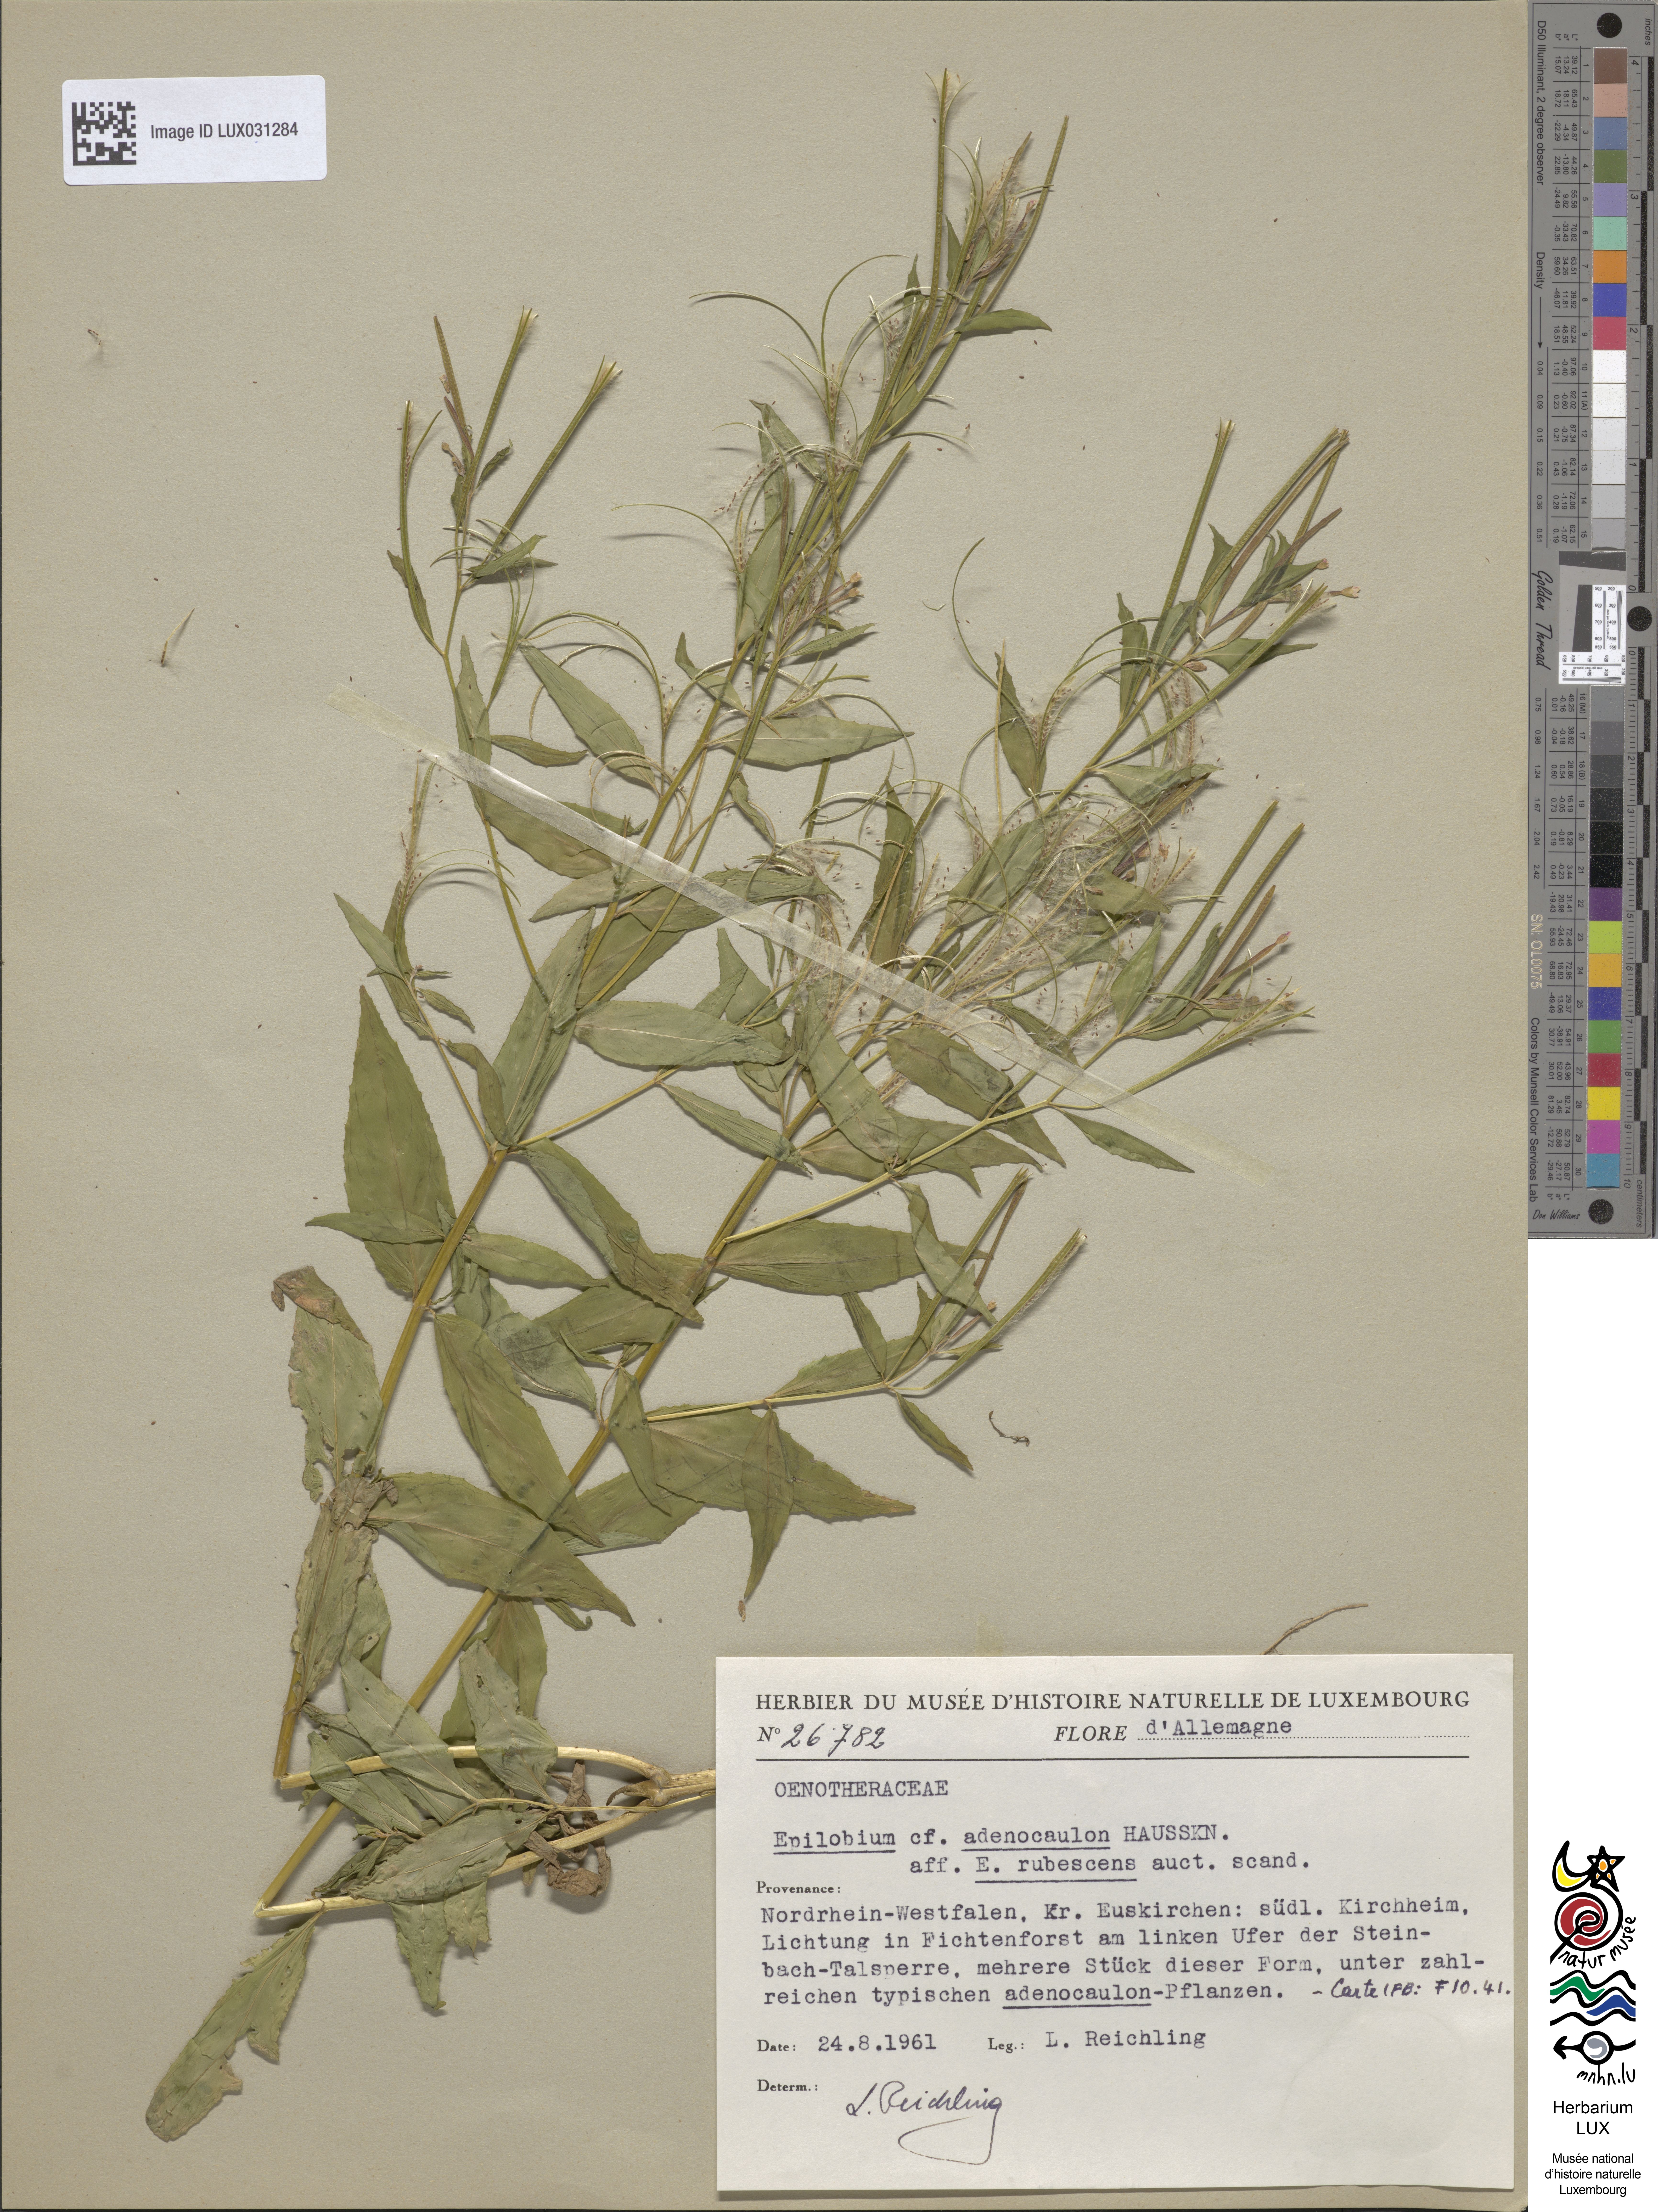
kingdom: Plantae
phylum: Tracheophyta
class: Magnoliopsida
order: Myrtales
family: Onagraceae
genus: Epilobium
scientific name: Epilobium ciliatum
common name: American willowherb
